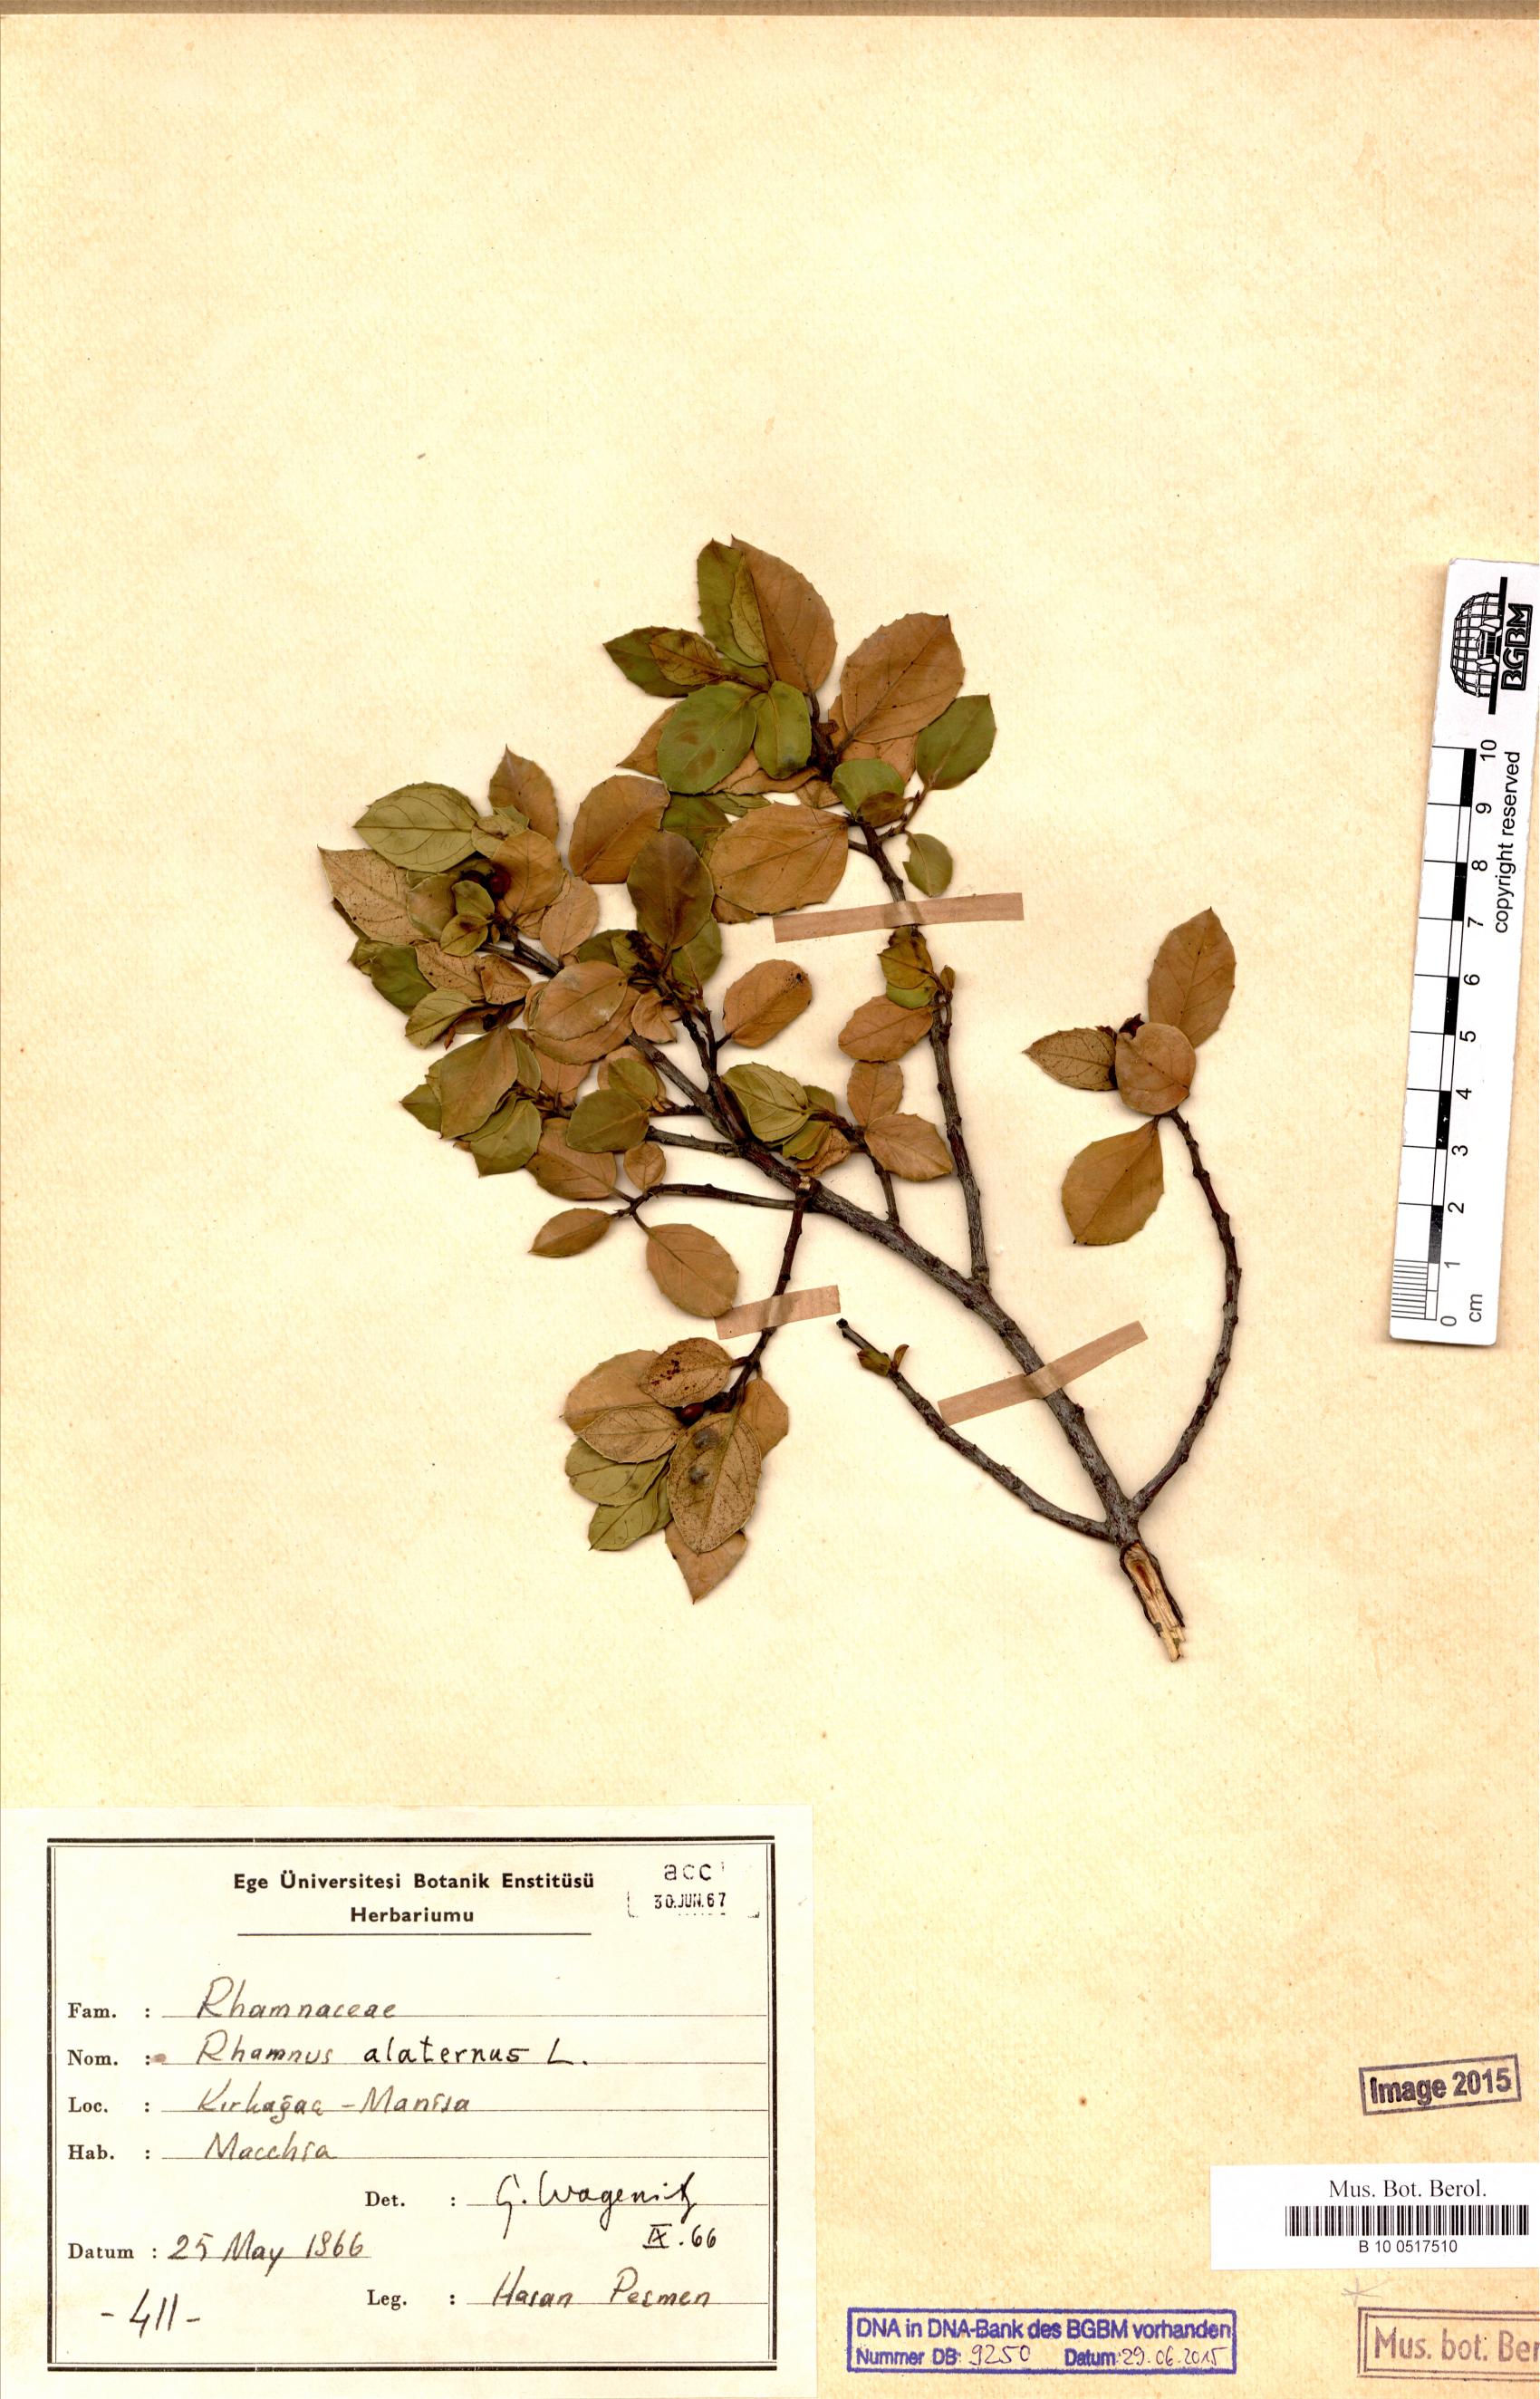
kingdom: Plantae
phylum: Tracheophyta
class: Magnoliopsida
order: Rosales
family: Rhamnaceae
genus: Rhamnus
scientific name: Rhamnus alaternus
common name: Mediterranean buckthorn
